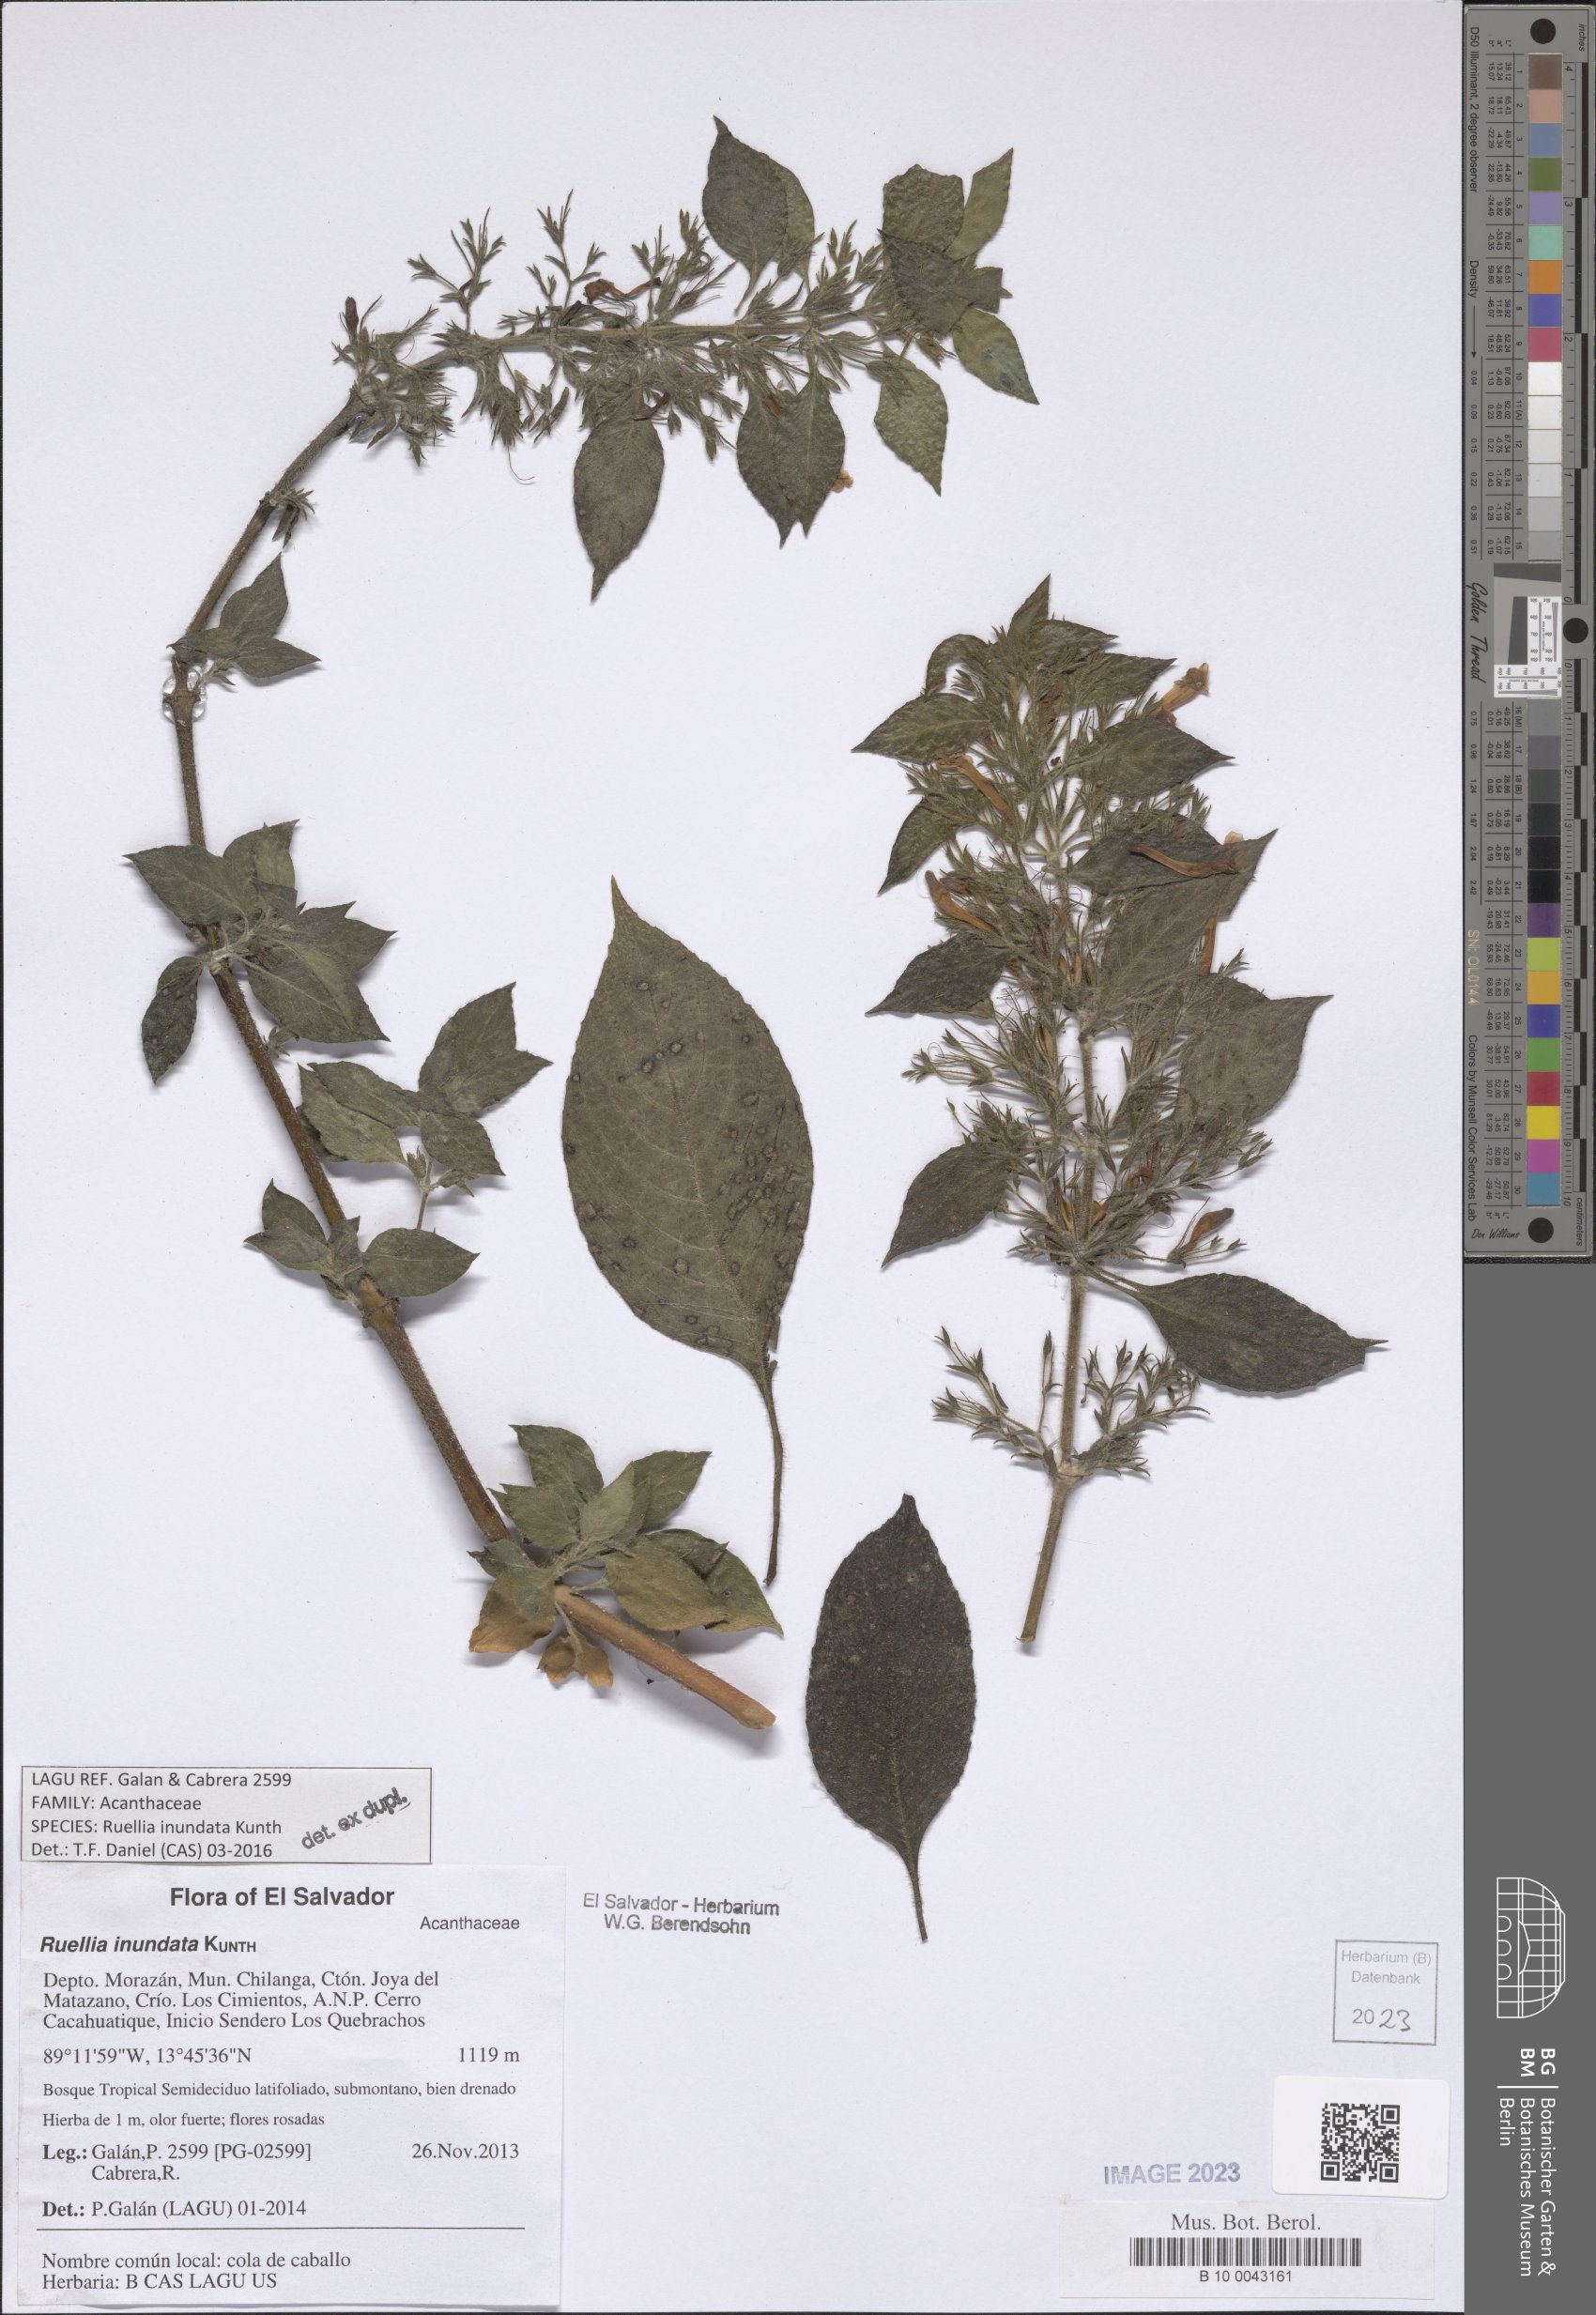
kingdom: Plantae
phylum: Tracheophyta
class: Magnoliopsida
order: Lamiales
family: Acanthaceae
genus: Ruellia
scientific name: Ruellia inundata
